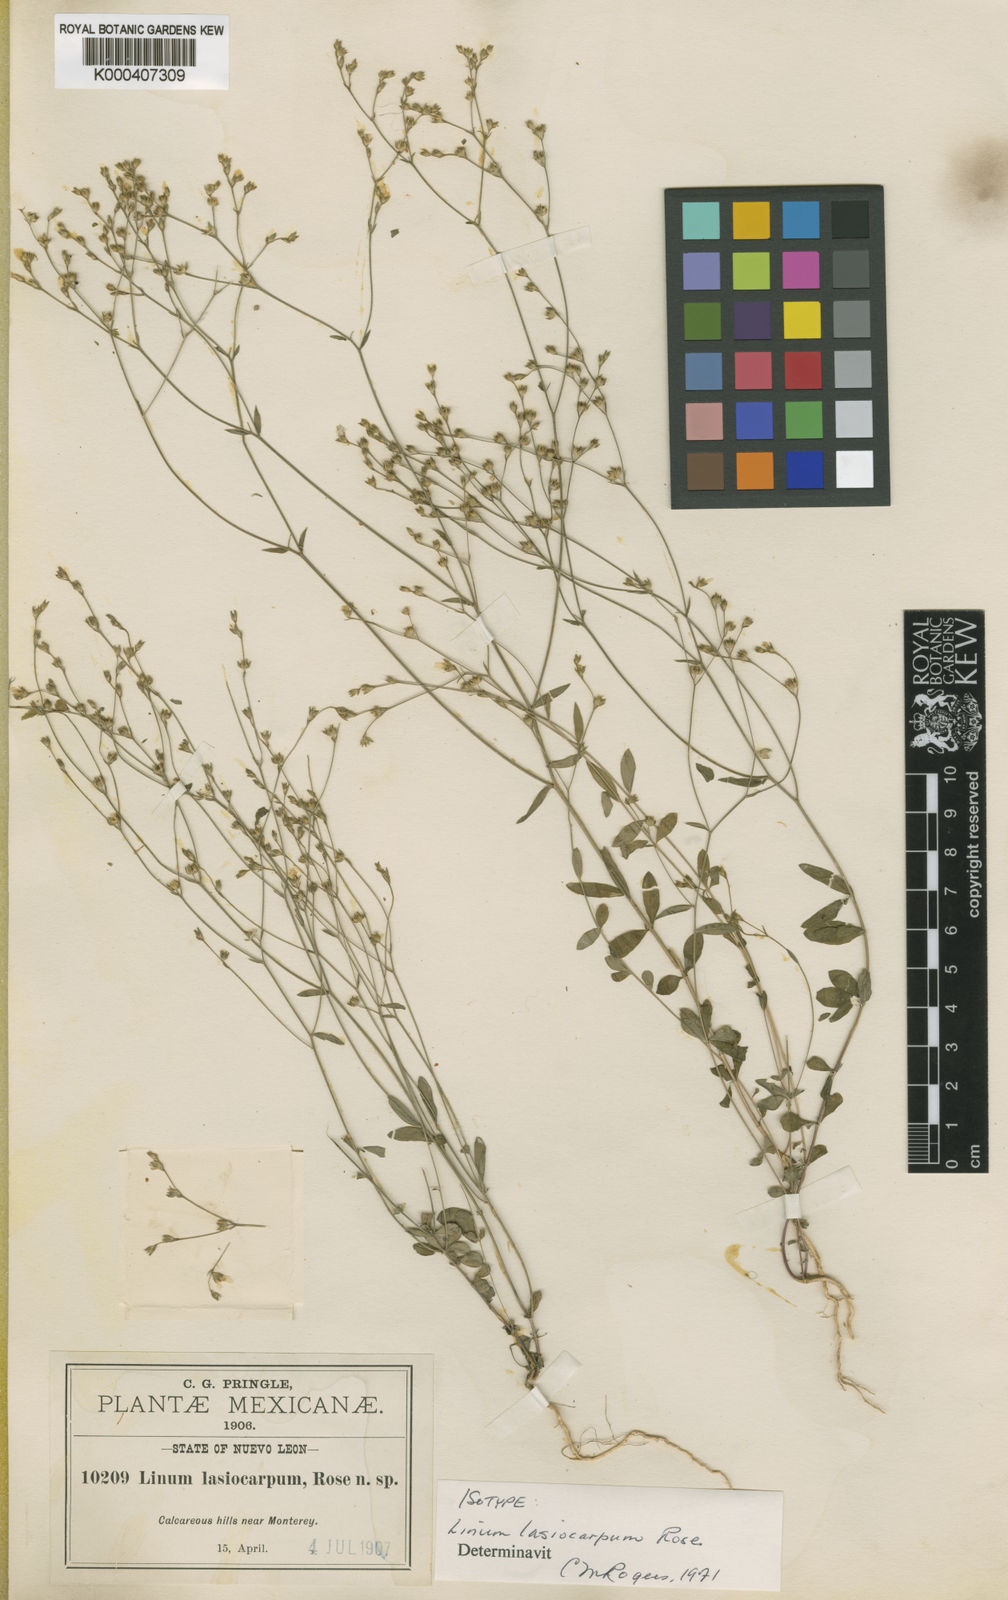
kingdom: Plantae
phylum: Tracheophyta
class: Magnoliopsida
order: Malpighiales
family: Linaceae
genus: Linum
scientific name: Linum lasiocarpum
